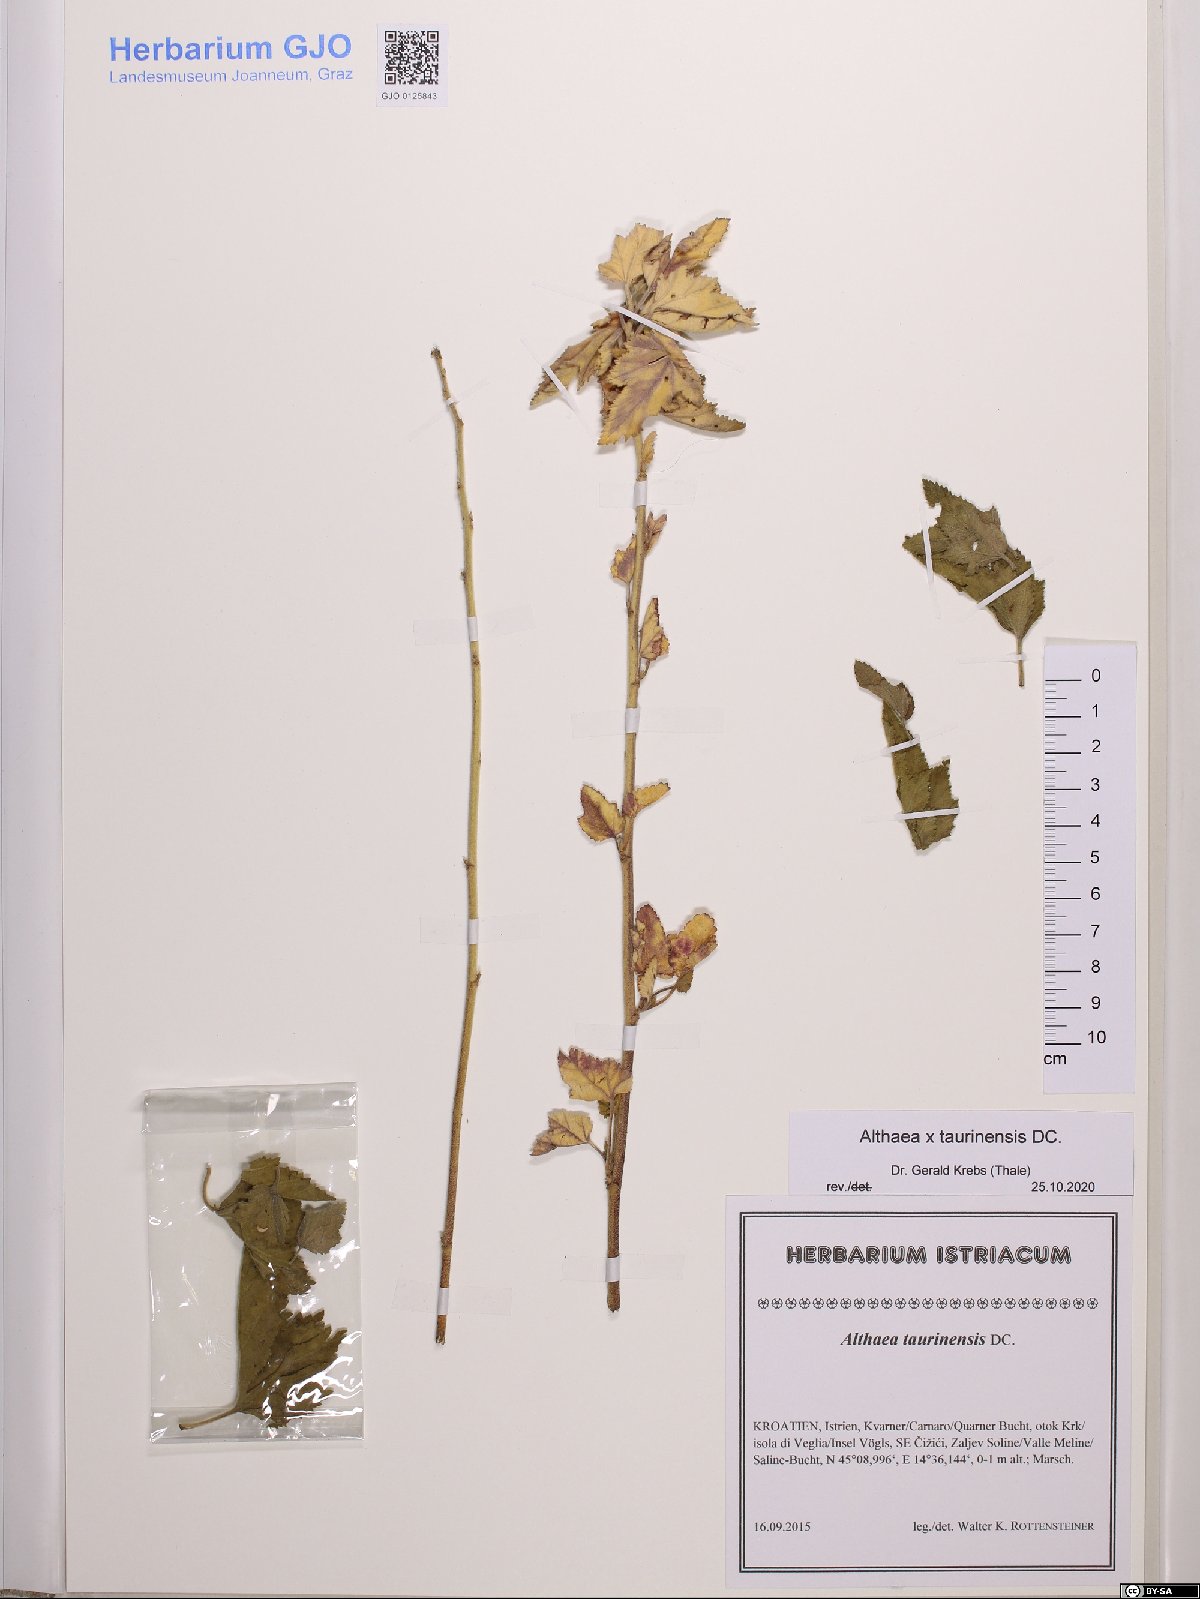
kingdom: Plantae
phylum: Tracheophyta
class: Magnoliopsida
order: Malvales
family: Malvaceae
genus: Althaea
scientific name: Althaea taurinensis
